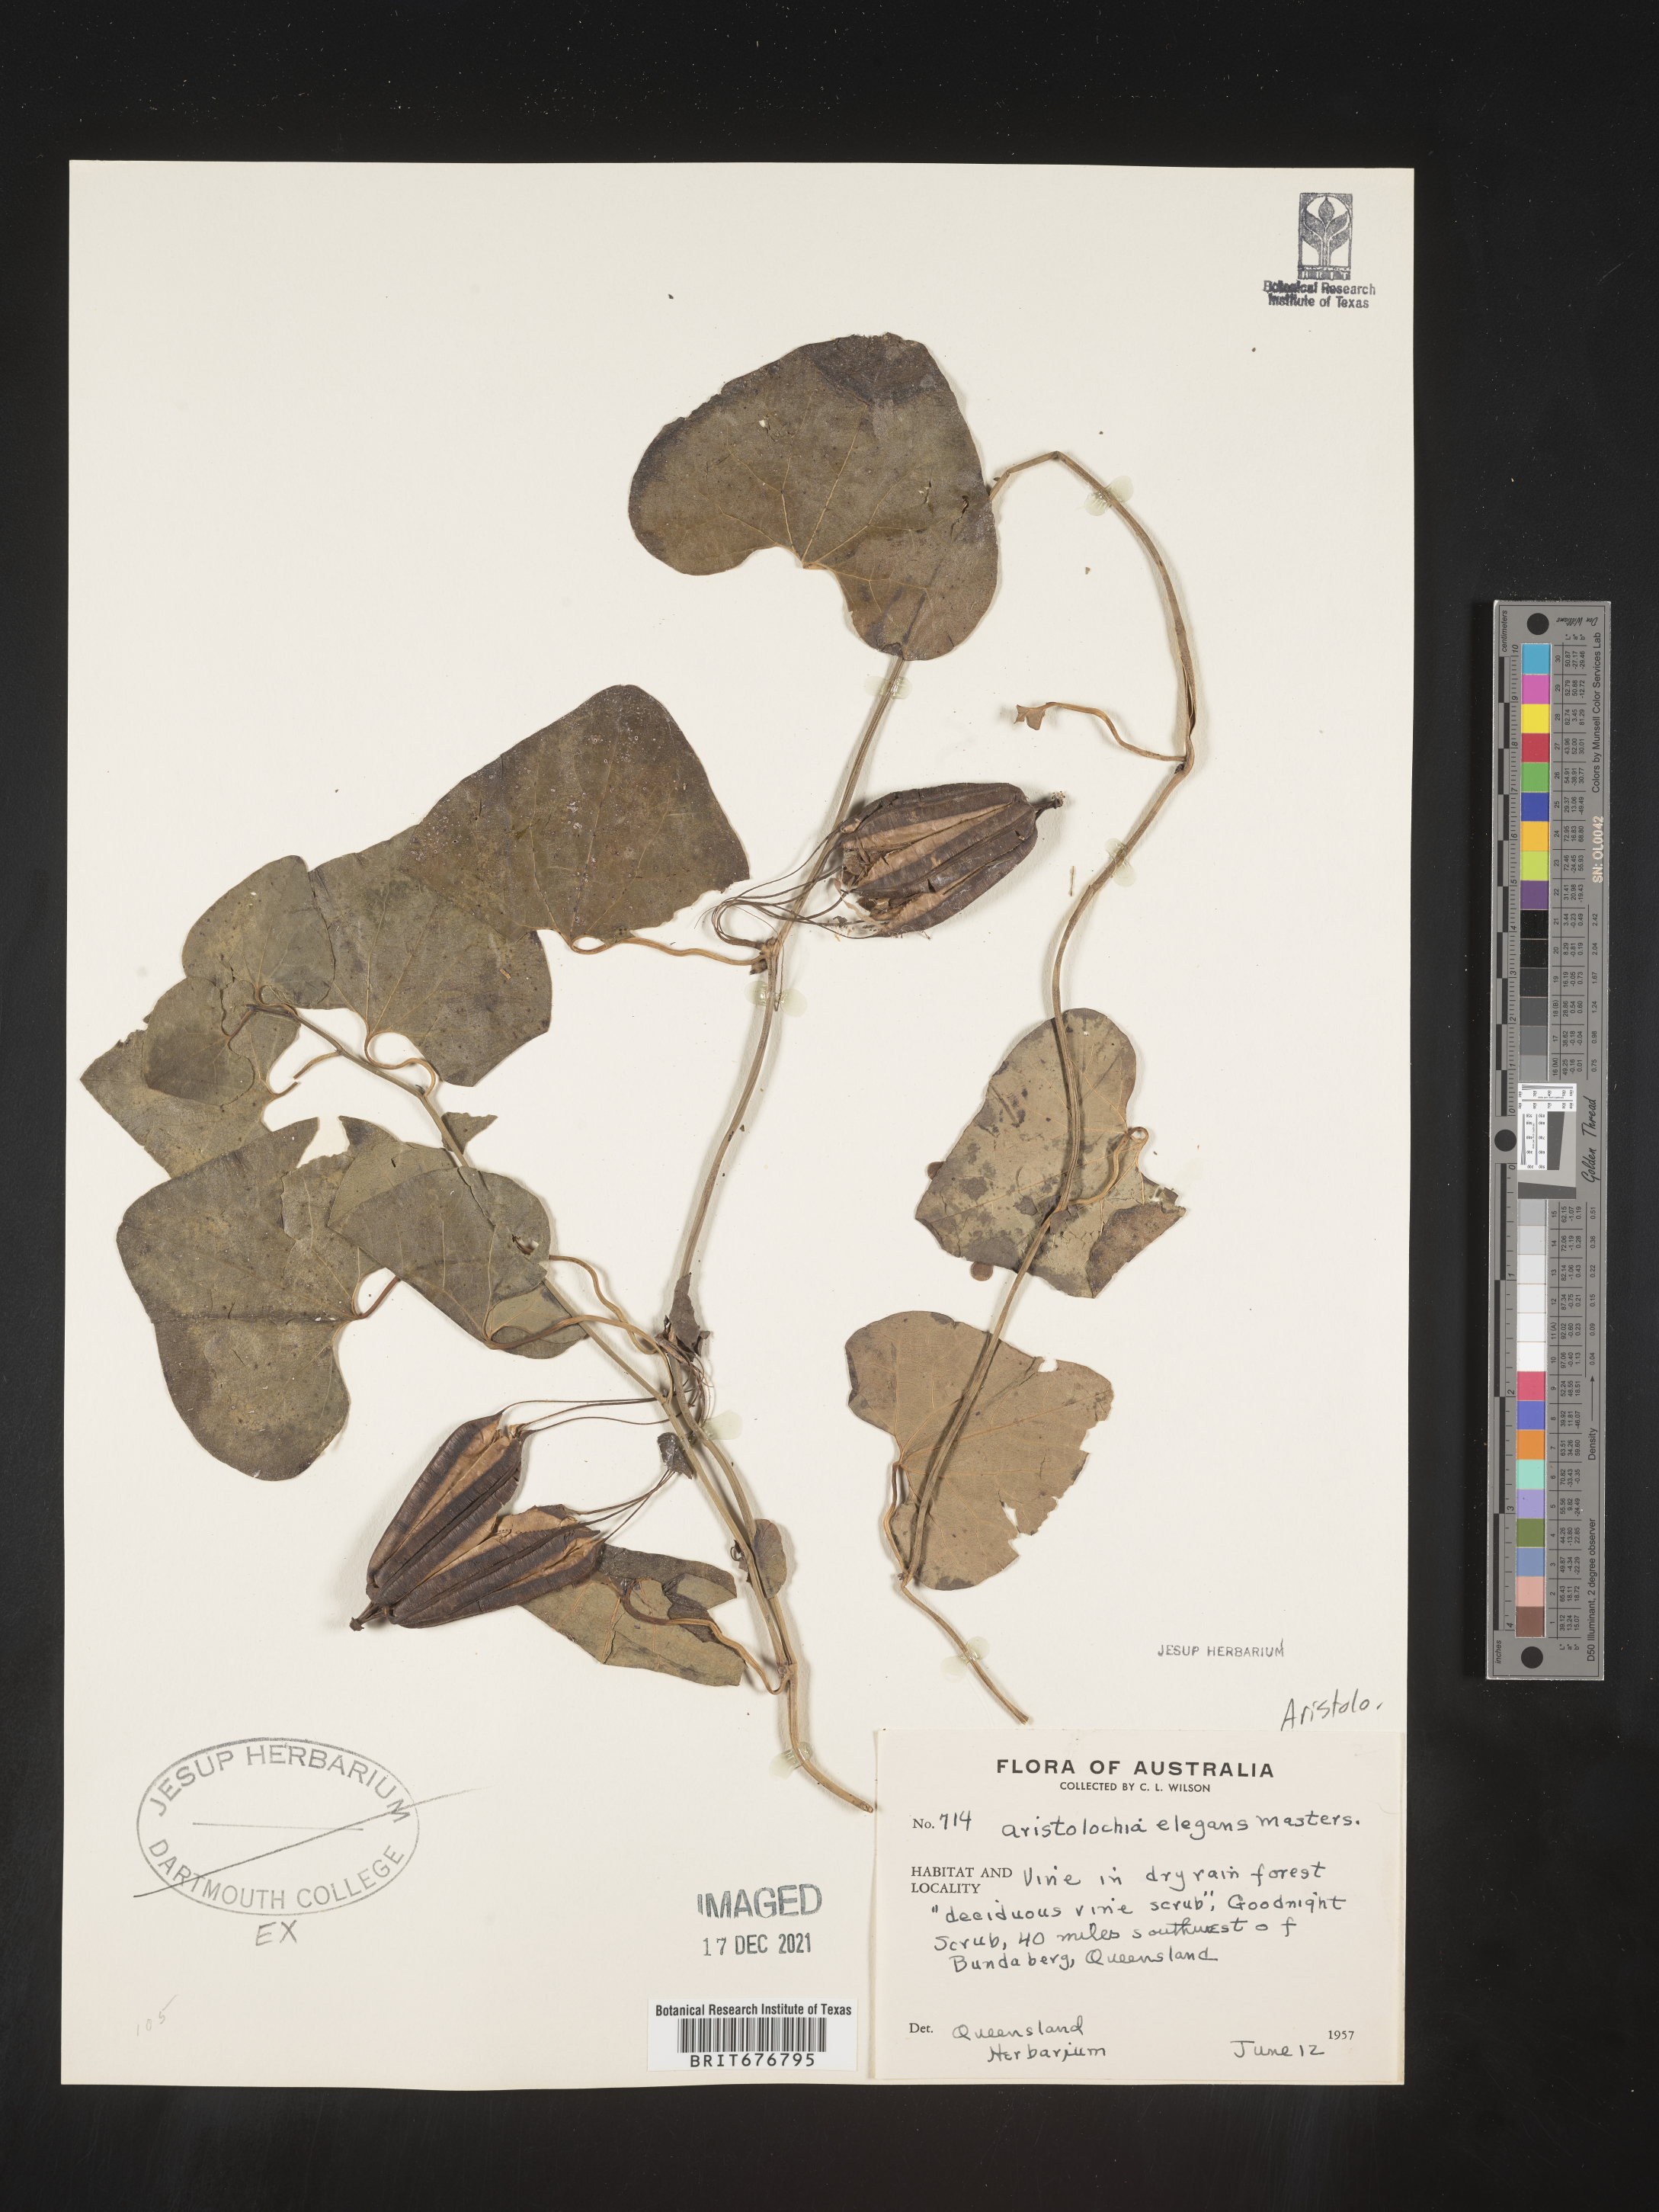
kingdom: Plantae
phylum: Tracheophyta
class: Magnoliopsida
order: Piperales
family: Aristolochiaceae
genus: Aristolochia
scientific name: Aristolochia littoralis
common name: Duck
